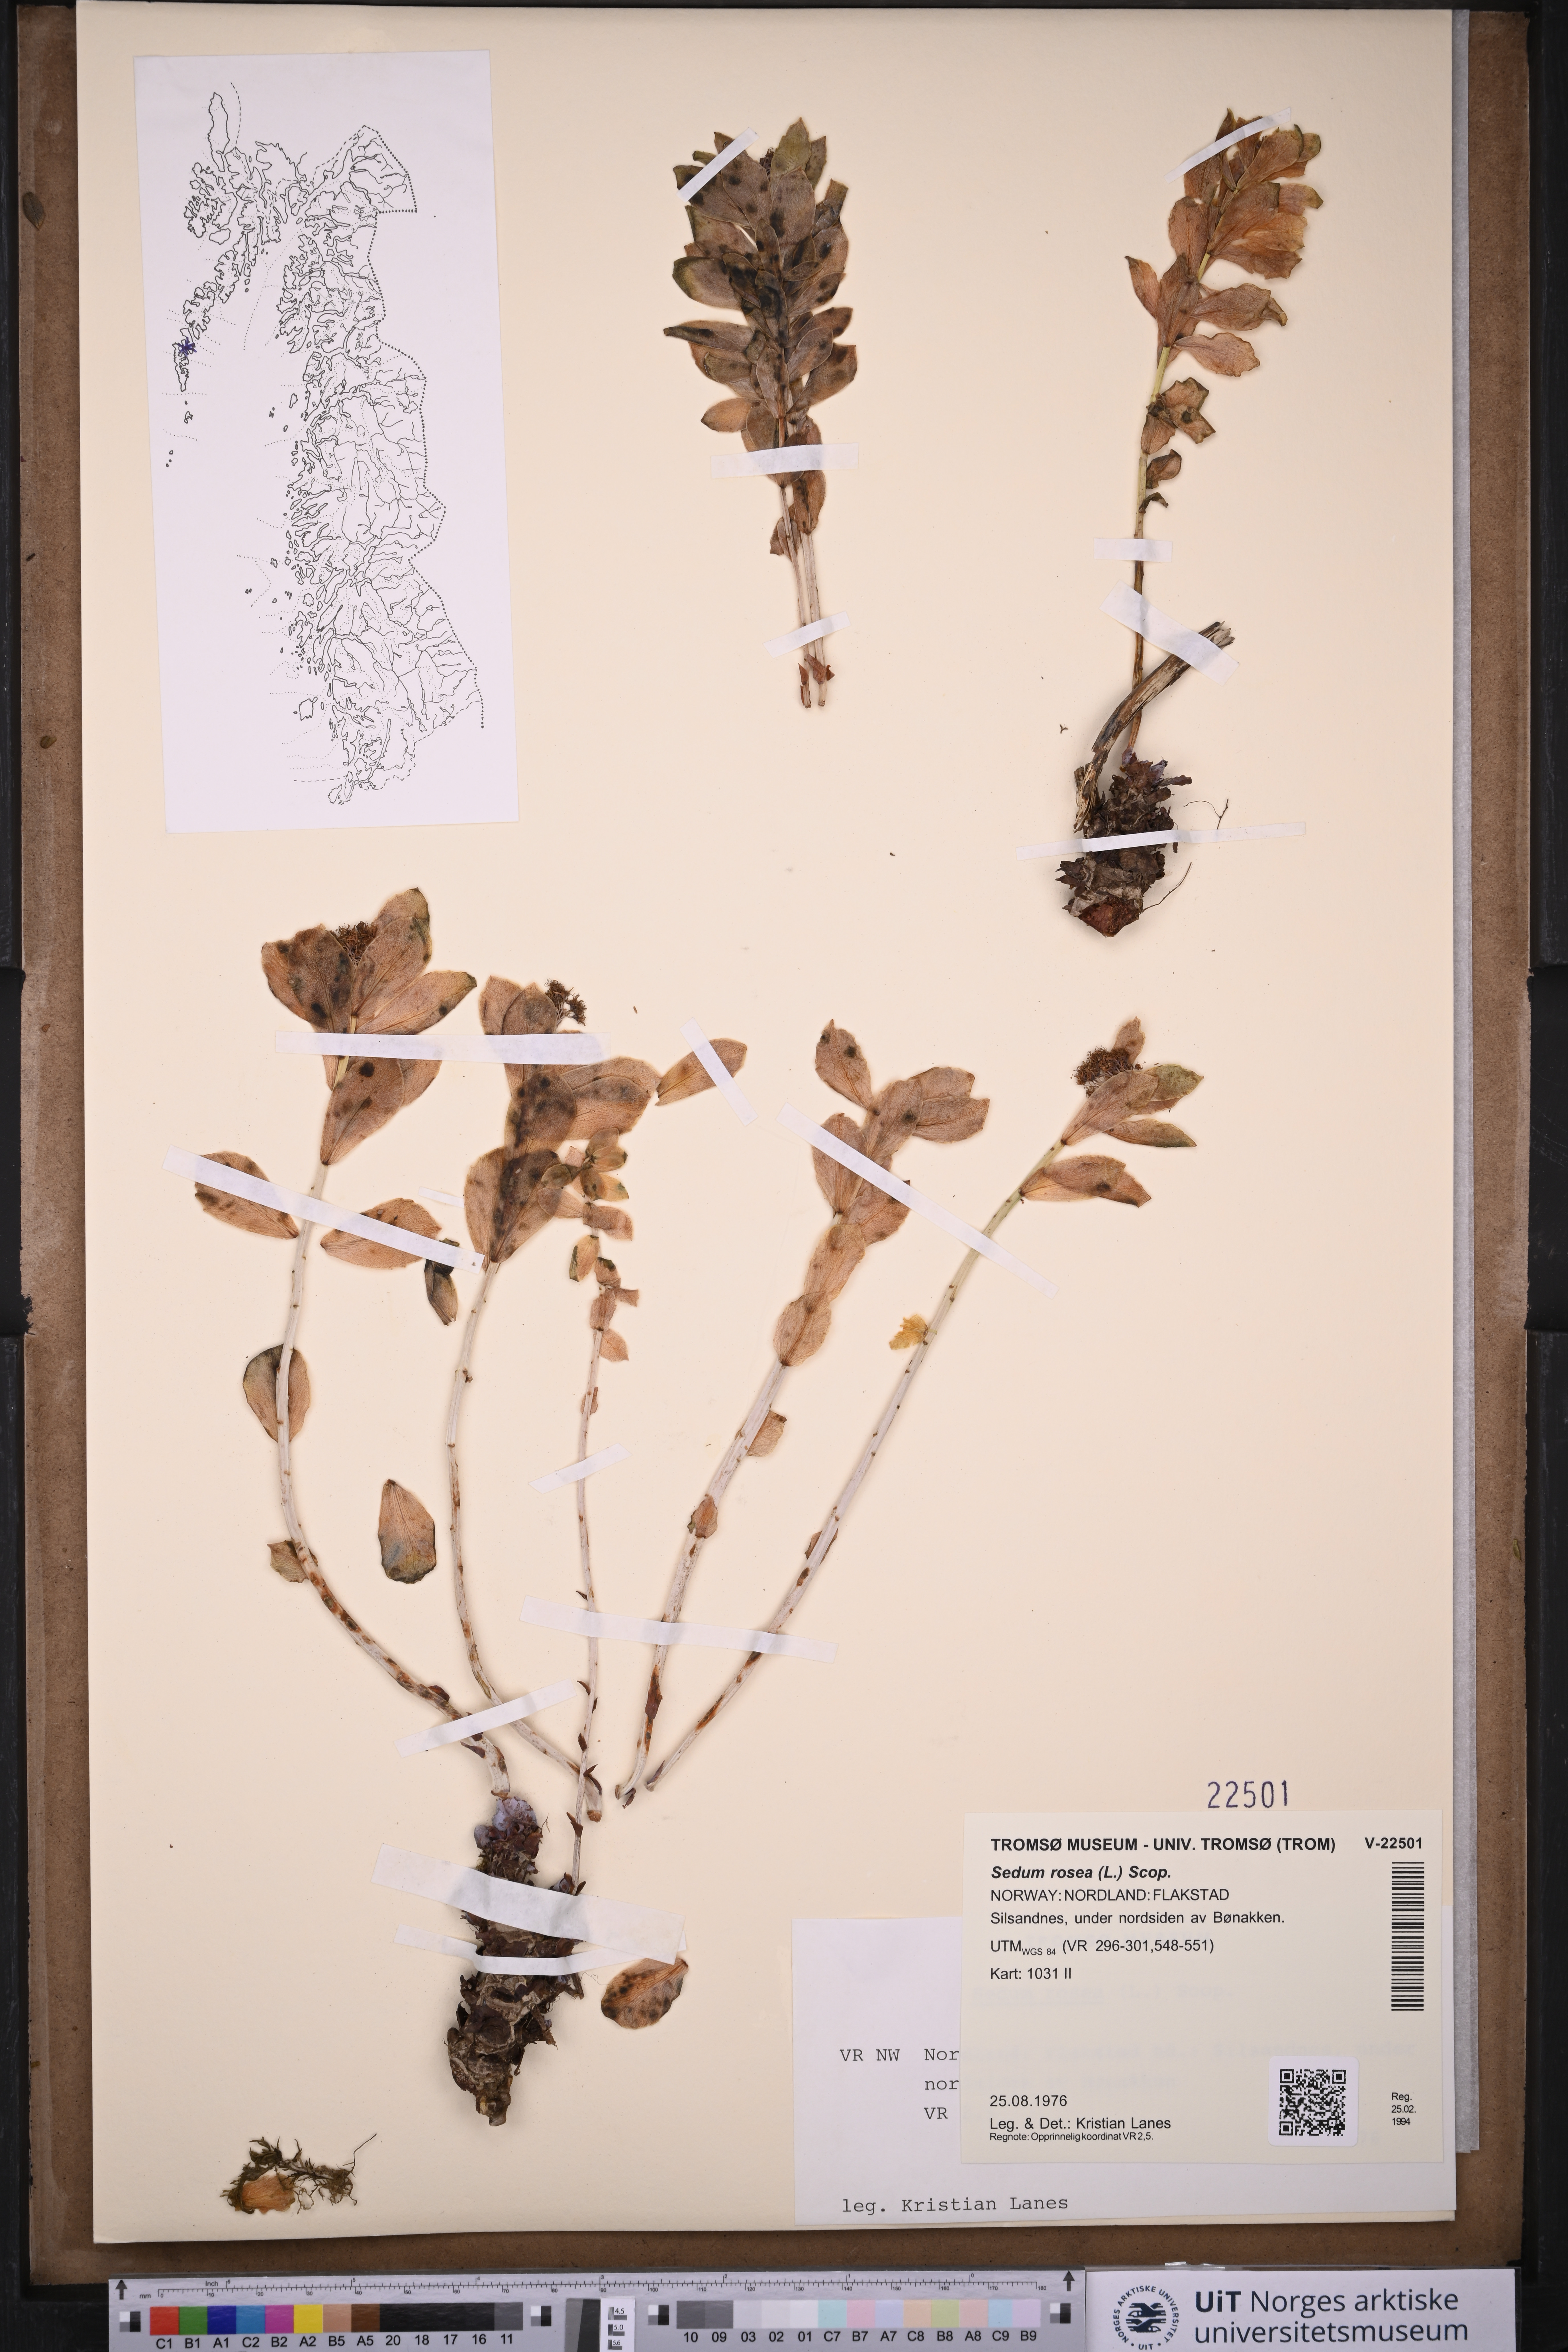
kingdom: Plantae
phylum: Tracheophyta
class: Magnoliopsida
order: Saxifragales
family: Crassulaceae
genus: Rhodiola
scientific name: Rhodiola rosea
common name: Roseroot
